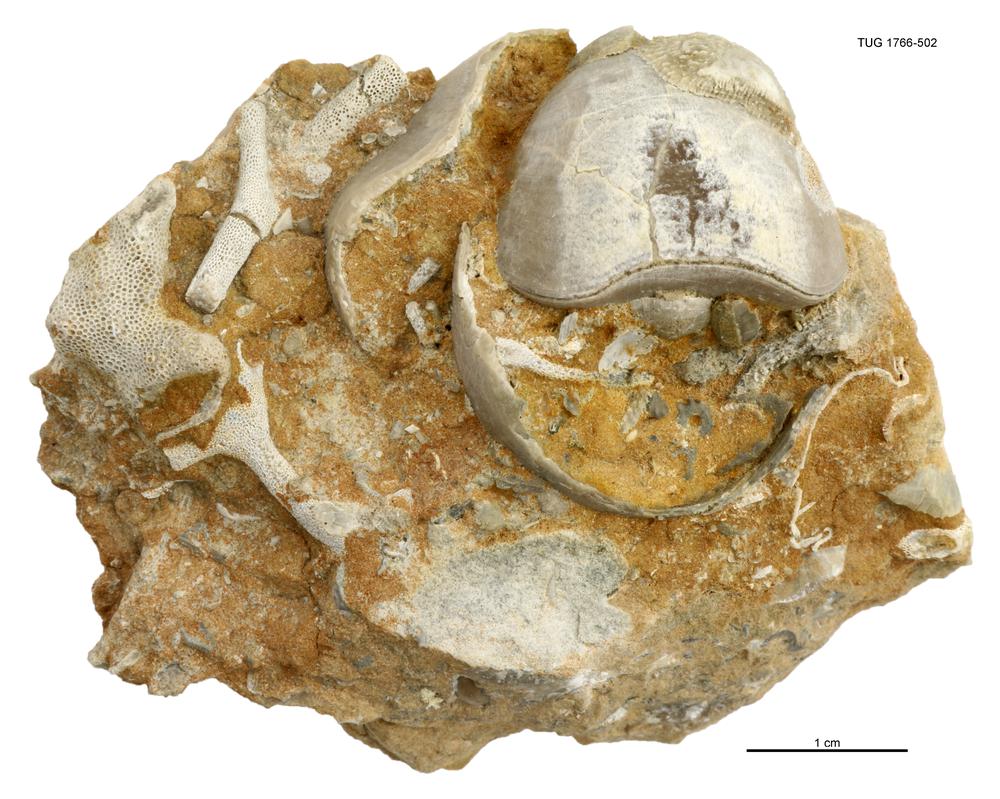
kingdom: Animalia
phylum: Brachiopoda
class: Rhynchonellata
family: Porambonitidae
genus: Porambonites
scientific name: Porambonites
